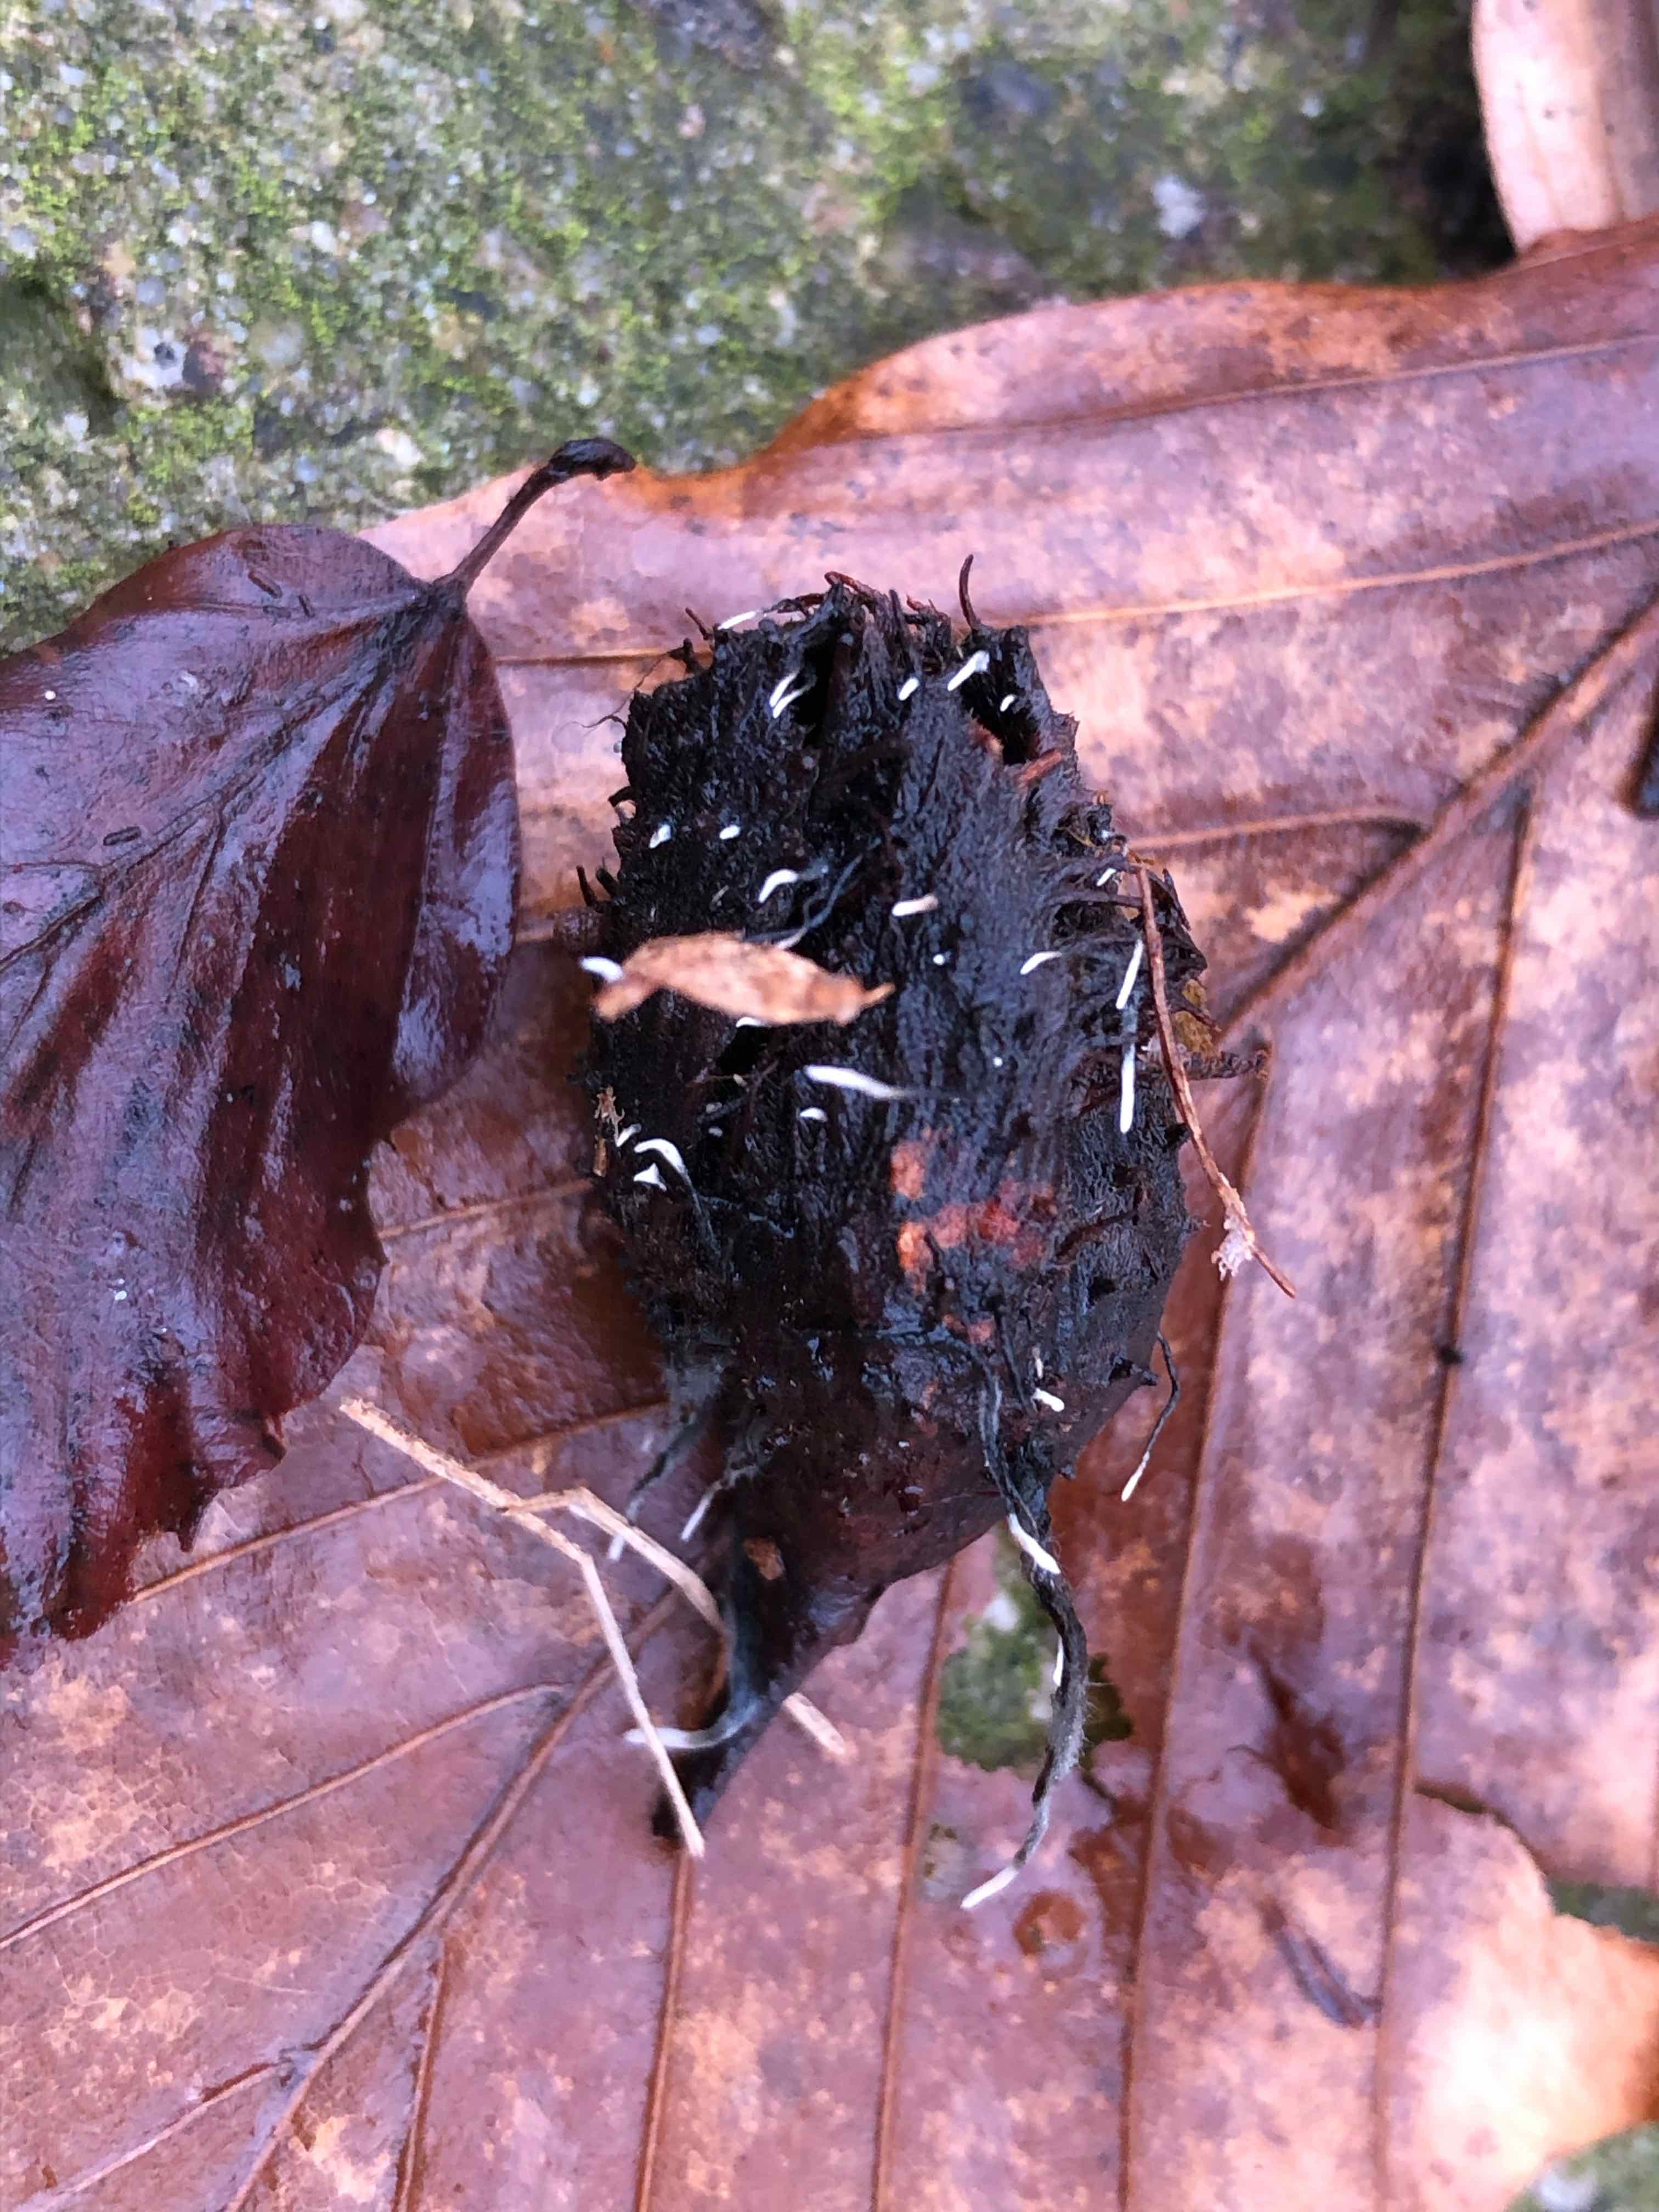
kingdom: Fungi
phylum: Ascomycota
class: Sordariomycetes
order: Xylariales
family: Xylariaceae
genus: Xylaria
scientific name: Xylaria carpophila
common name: bogskål-stødsvamp
